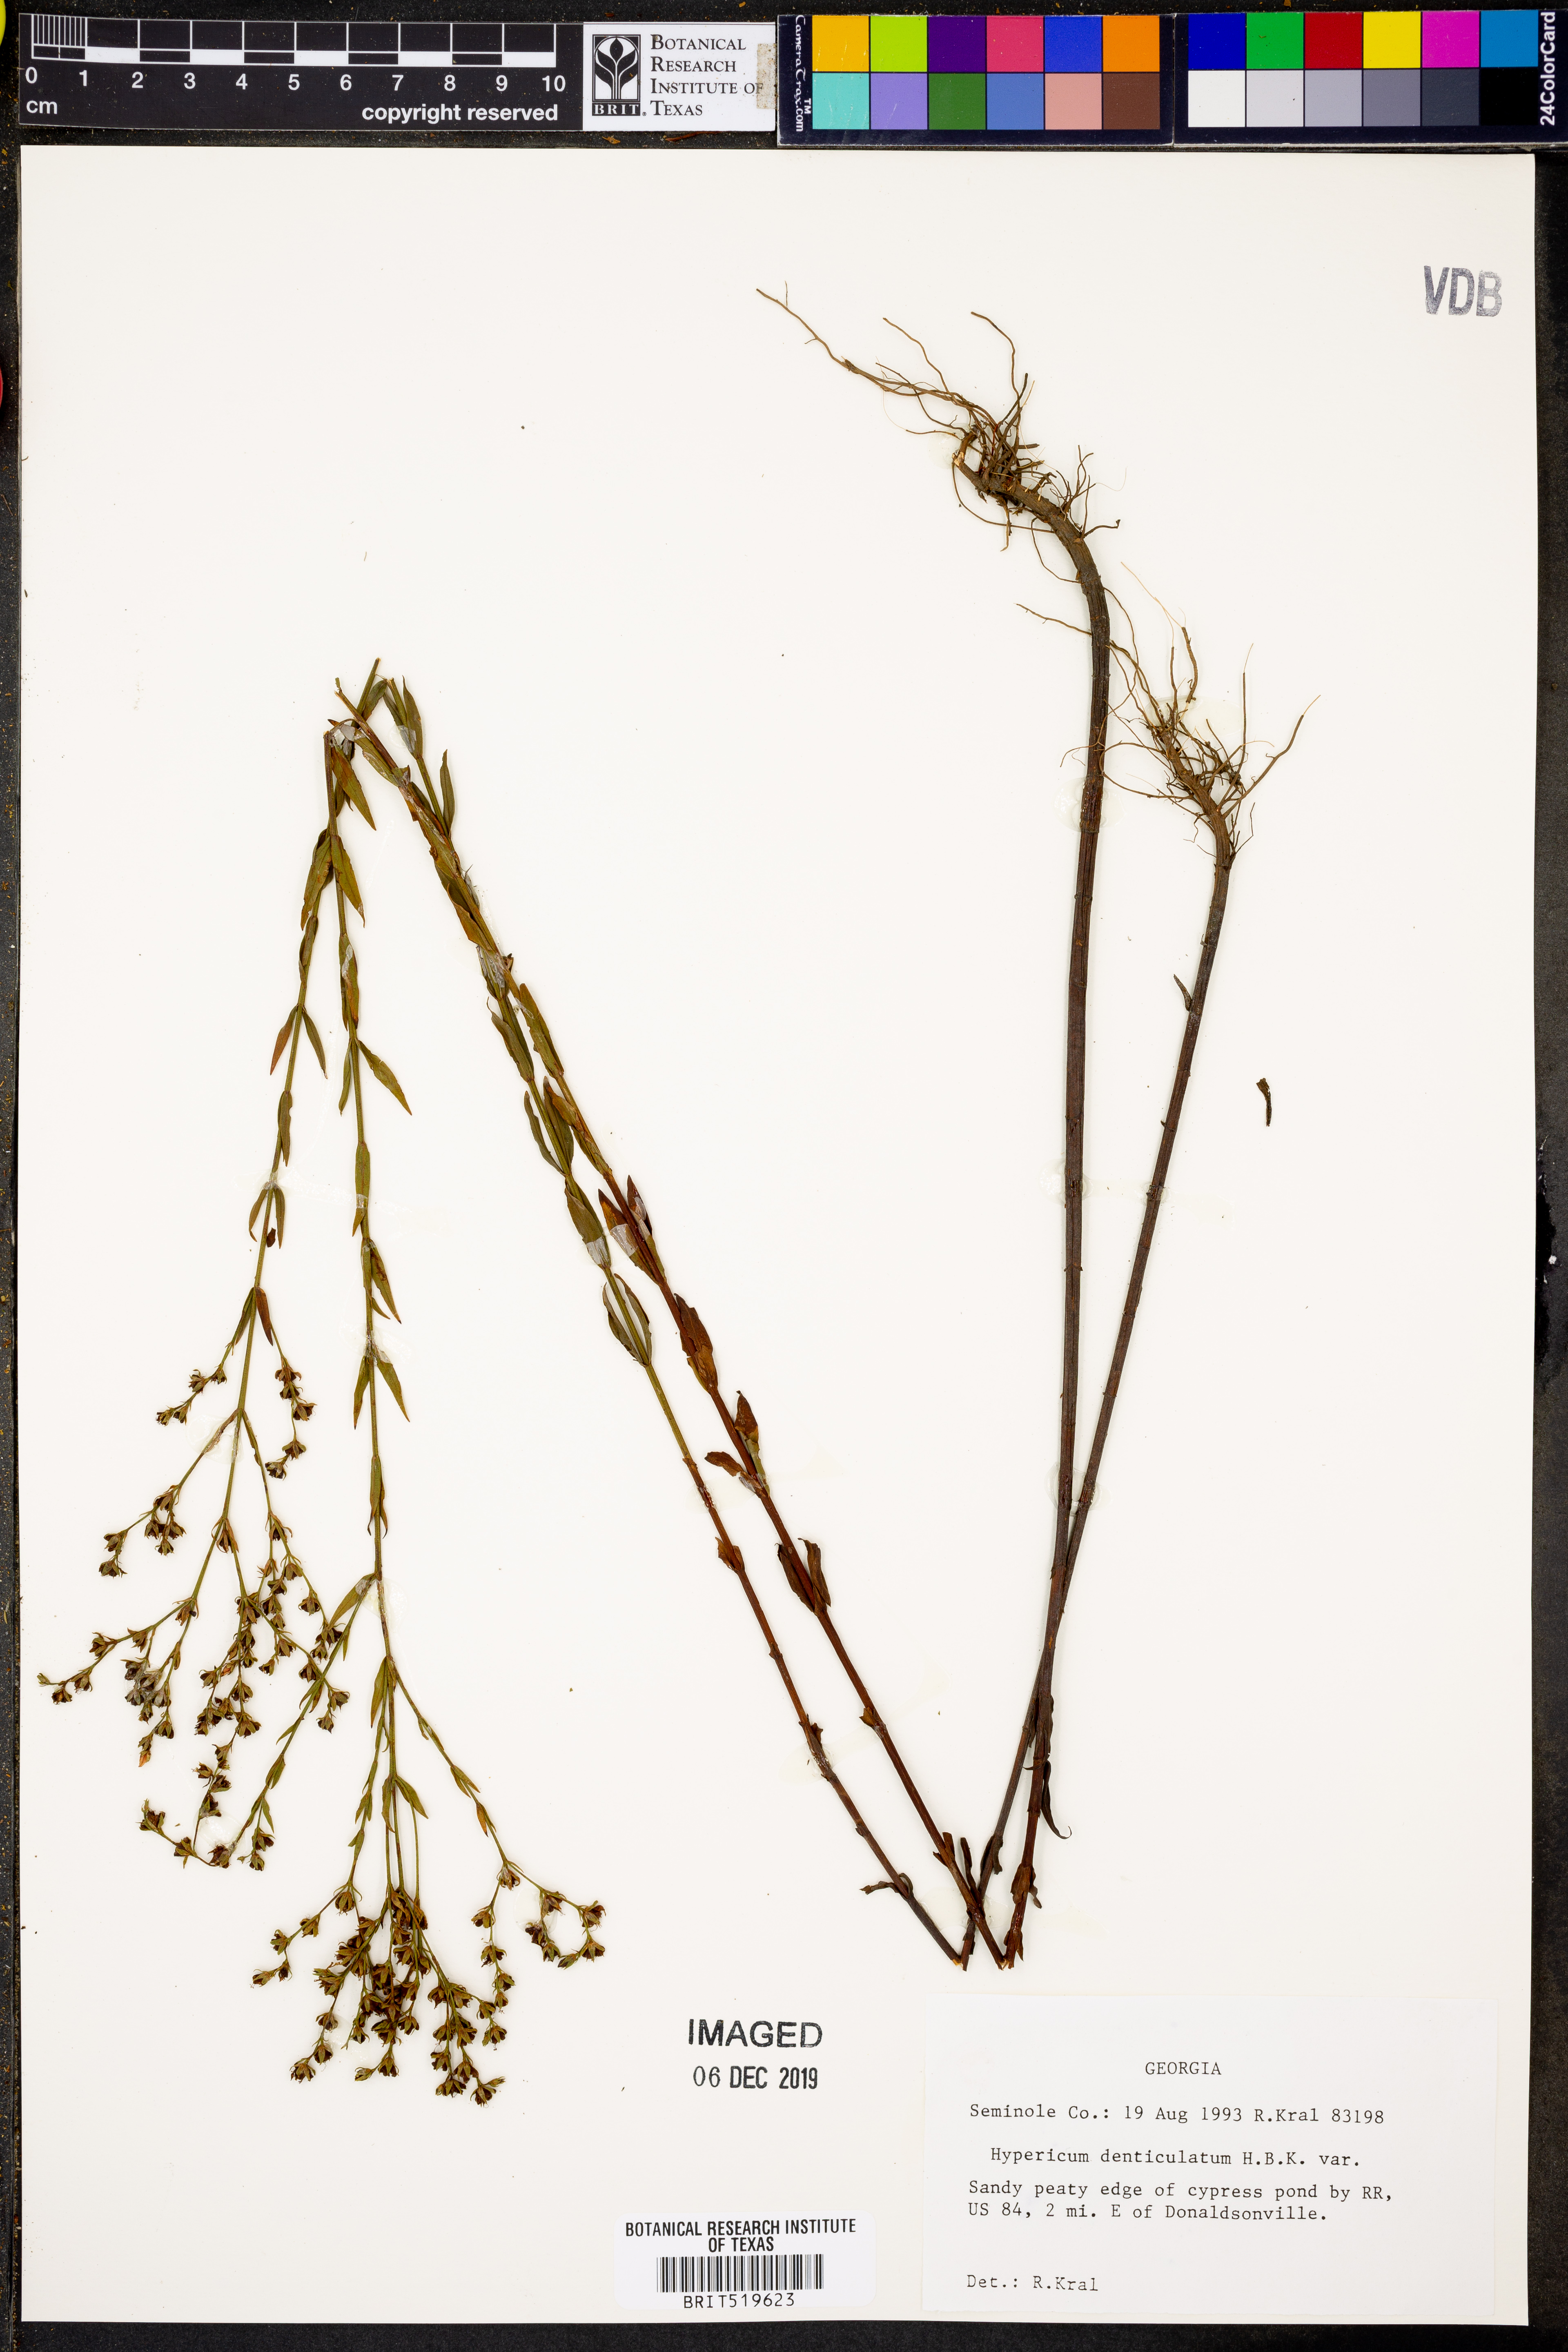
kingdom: Plantae
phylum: Tracheophyta
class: Magnoliopsida
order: Malpighiales
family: Hypericaceae
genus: Hypericum
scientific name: Hypericum denticulatum
